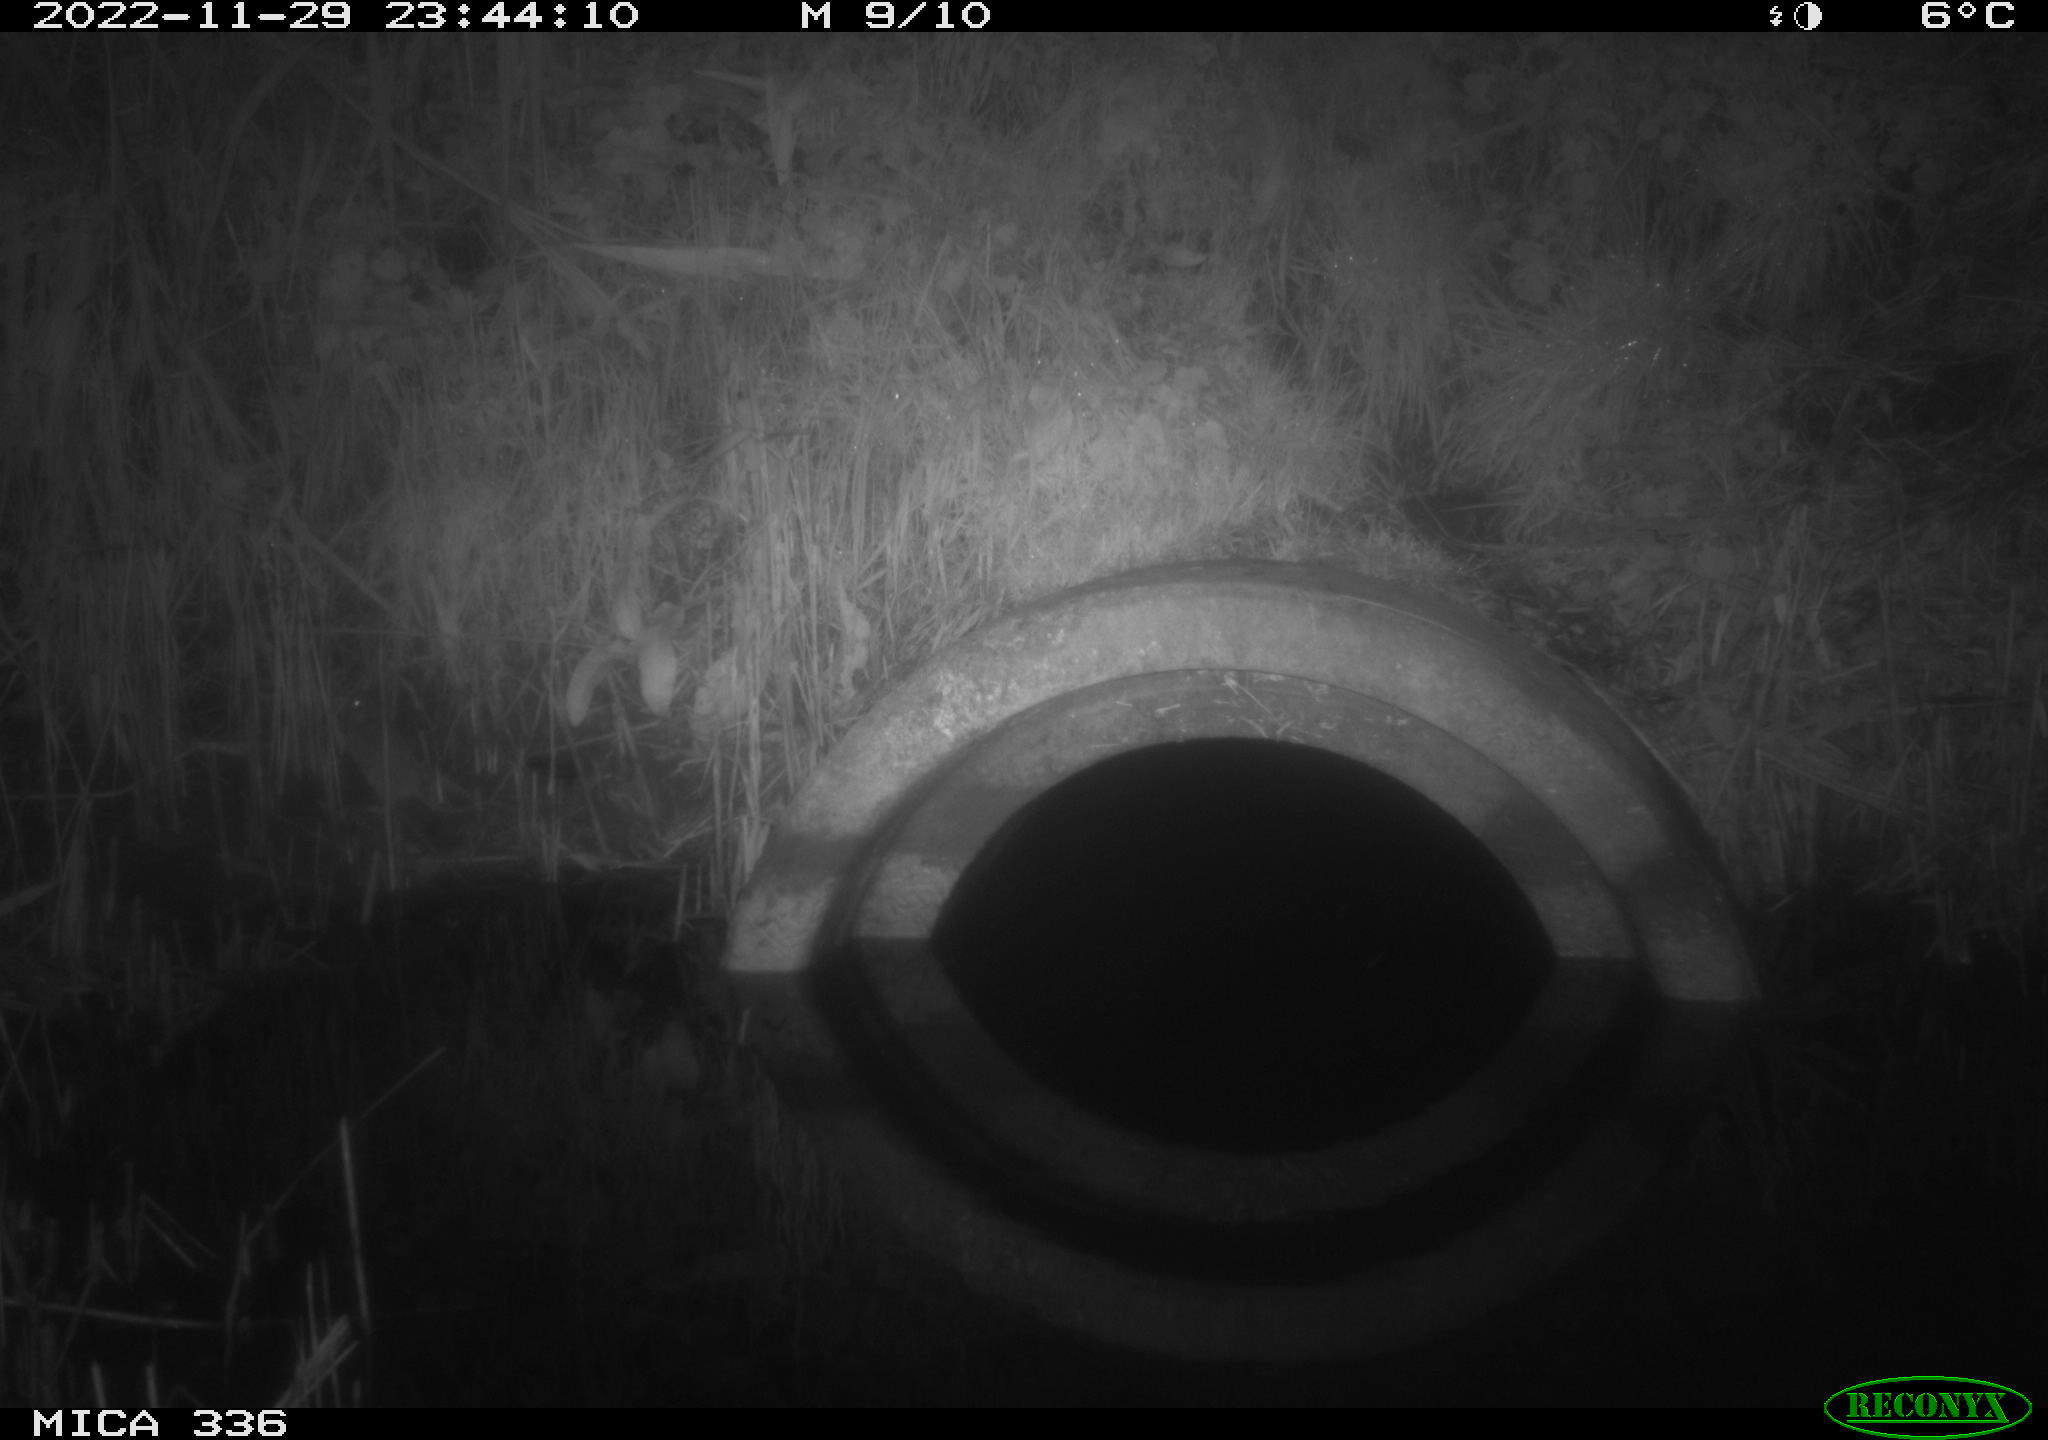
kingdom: Animalia
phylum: Chordata
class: Mammalia
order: Rodentia
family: Muridae
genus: Rattus
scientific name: Rattus norvegicus
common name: Brown rat
